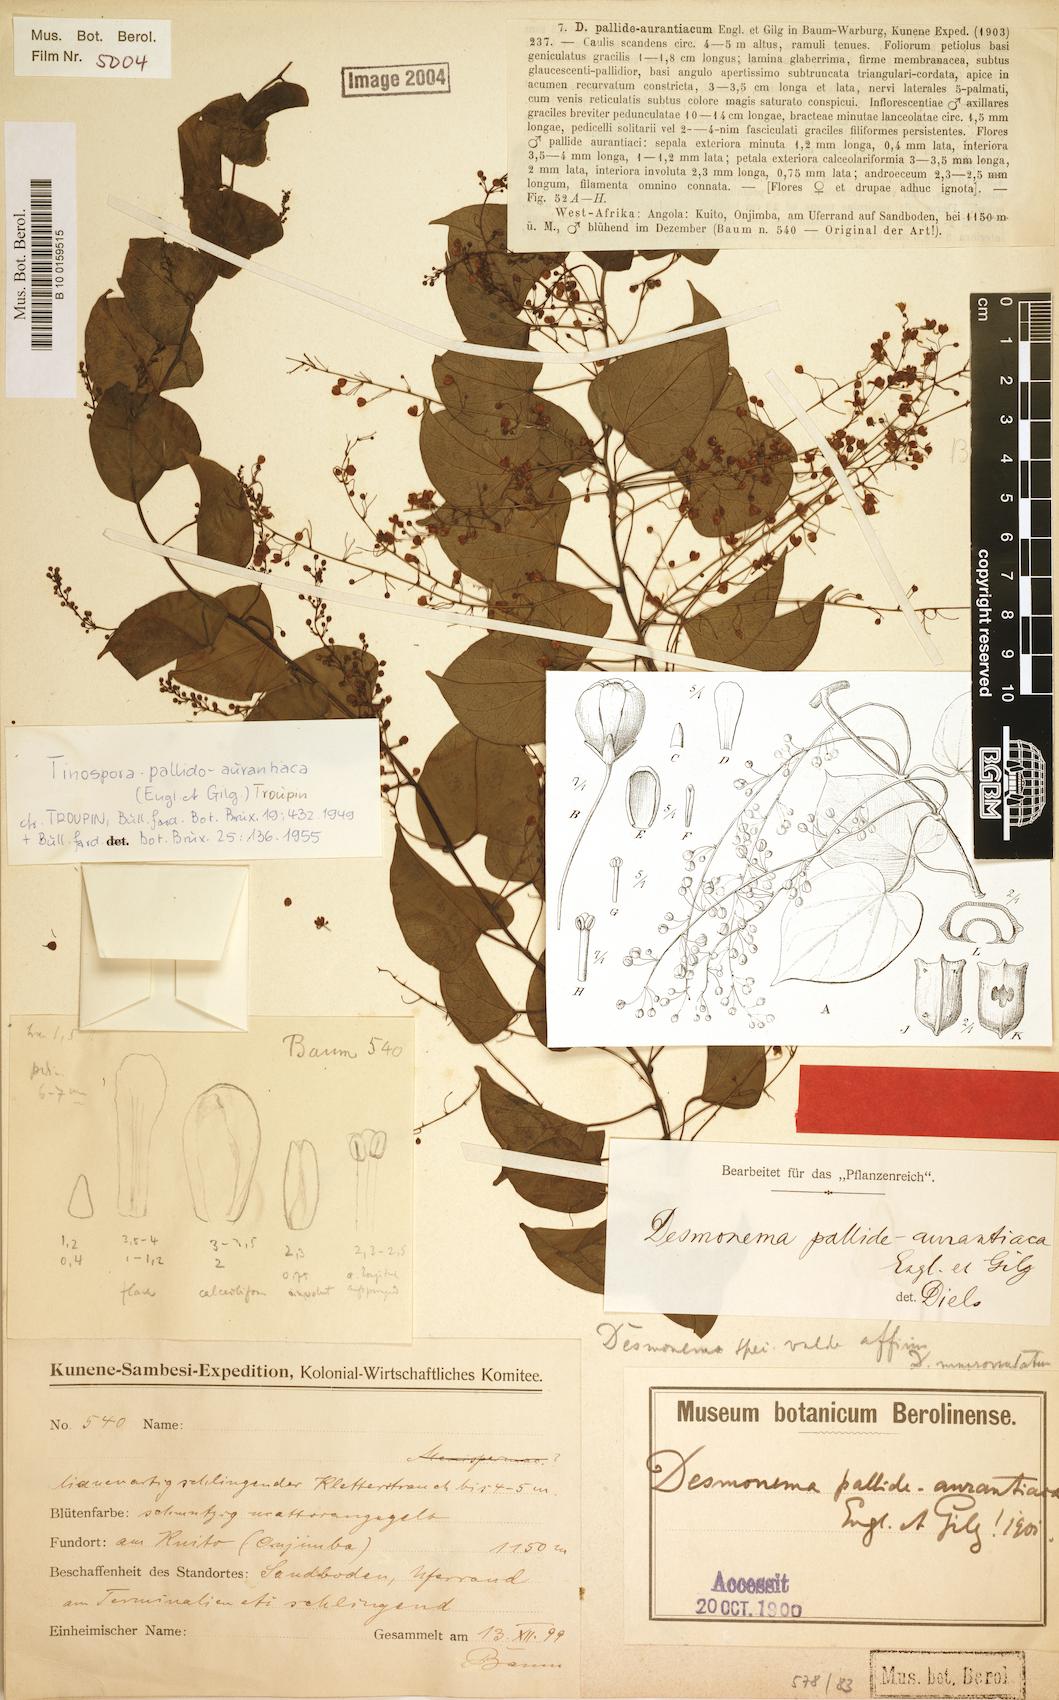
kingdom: Plantae
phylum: Tracheophyta
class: Magnoliopsida
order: Ranunculales
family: Menispermaceae
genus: Tinospora
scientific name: Tinospora
